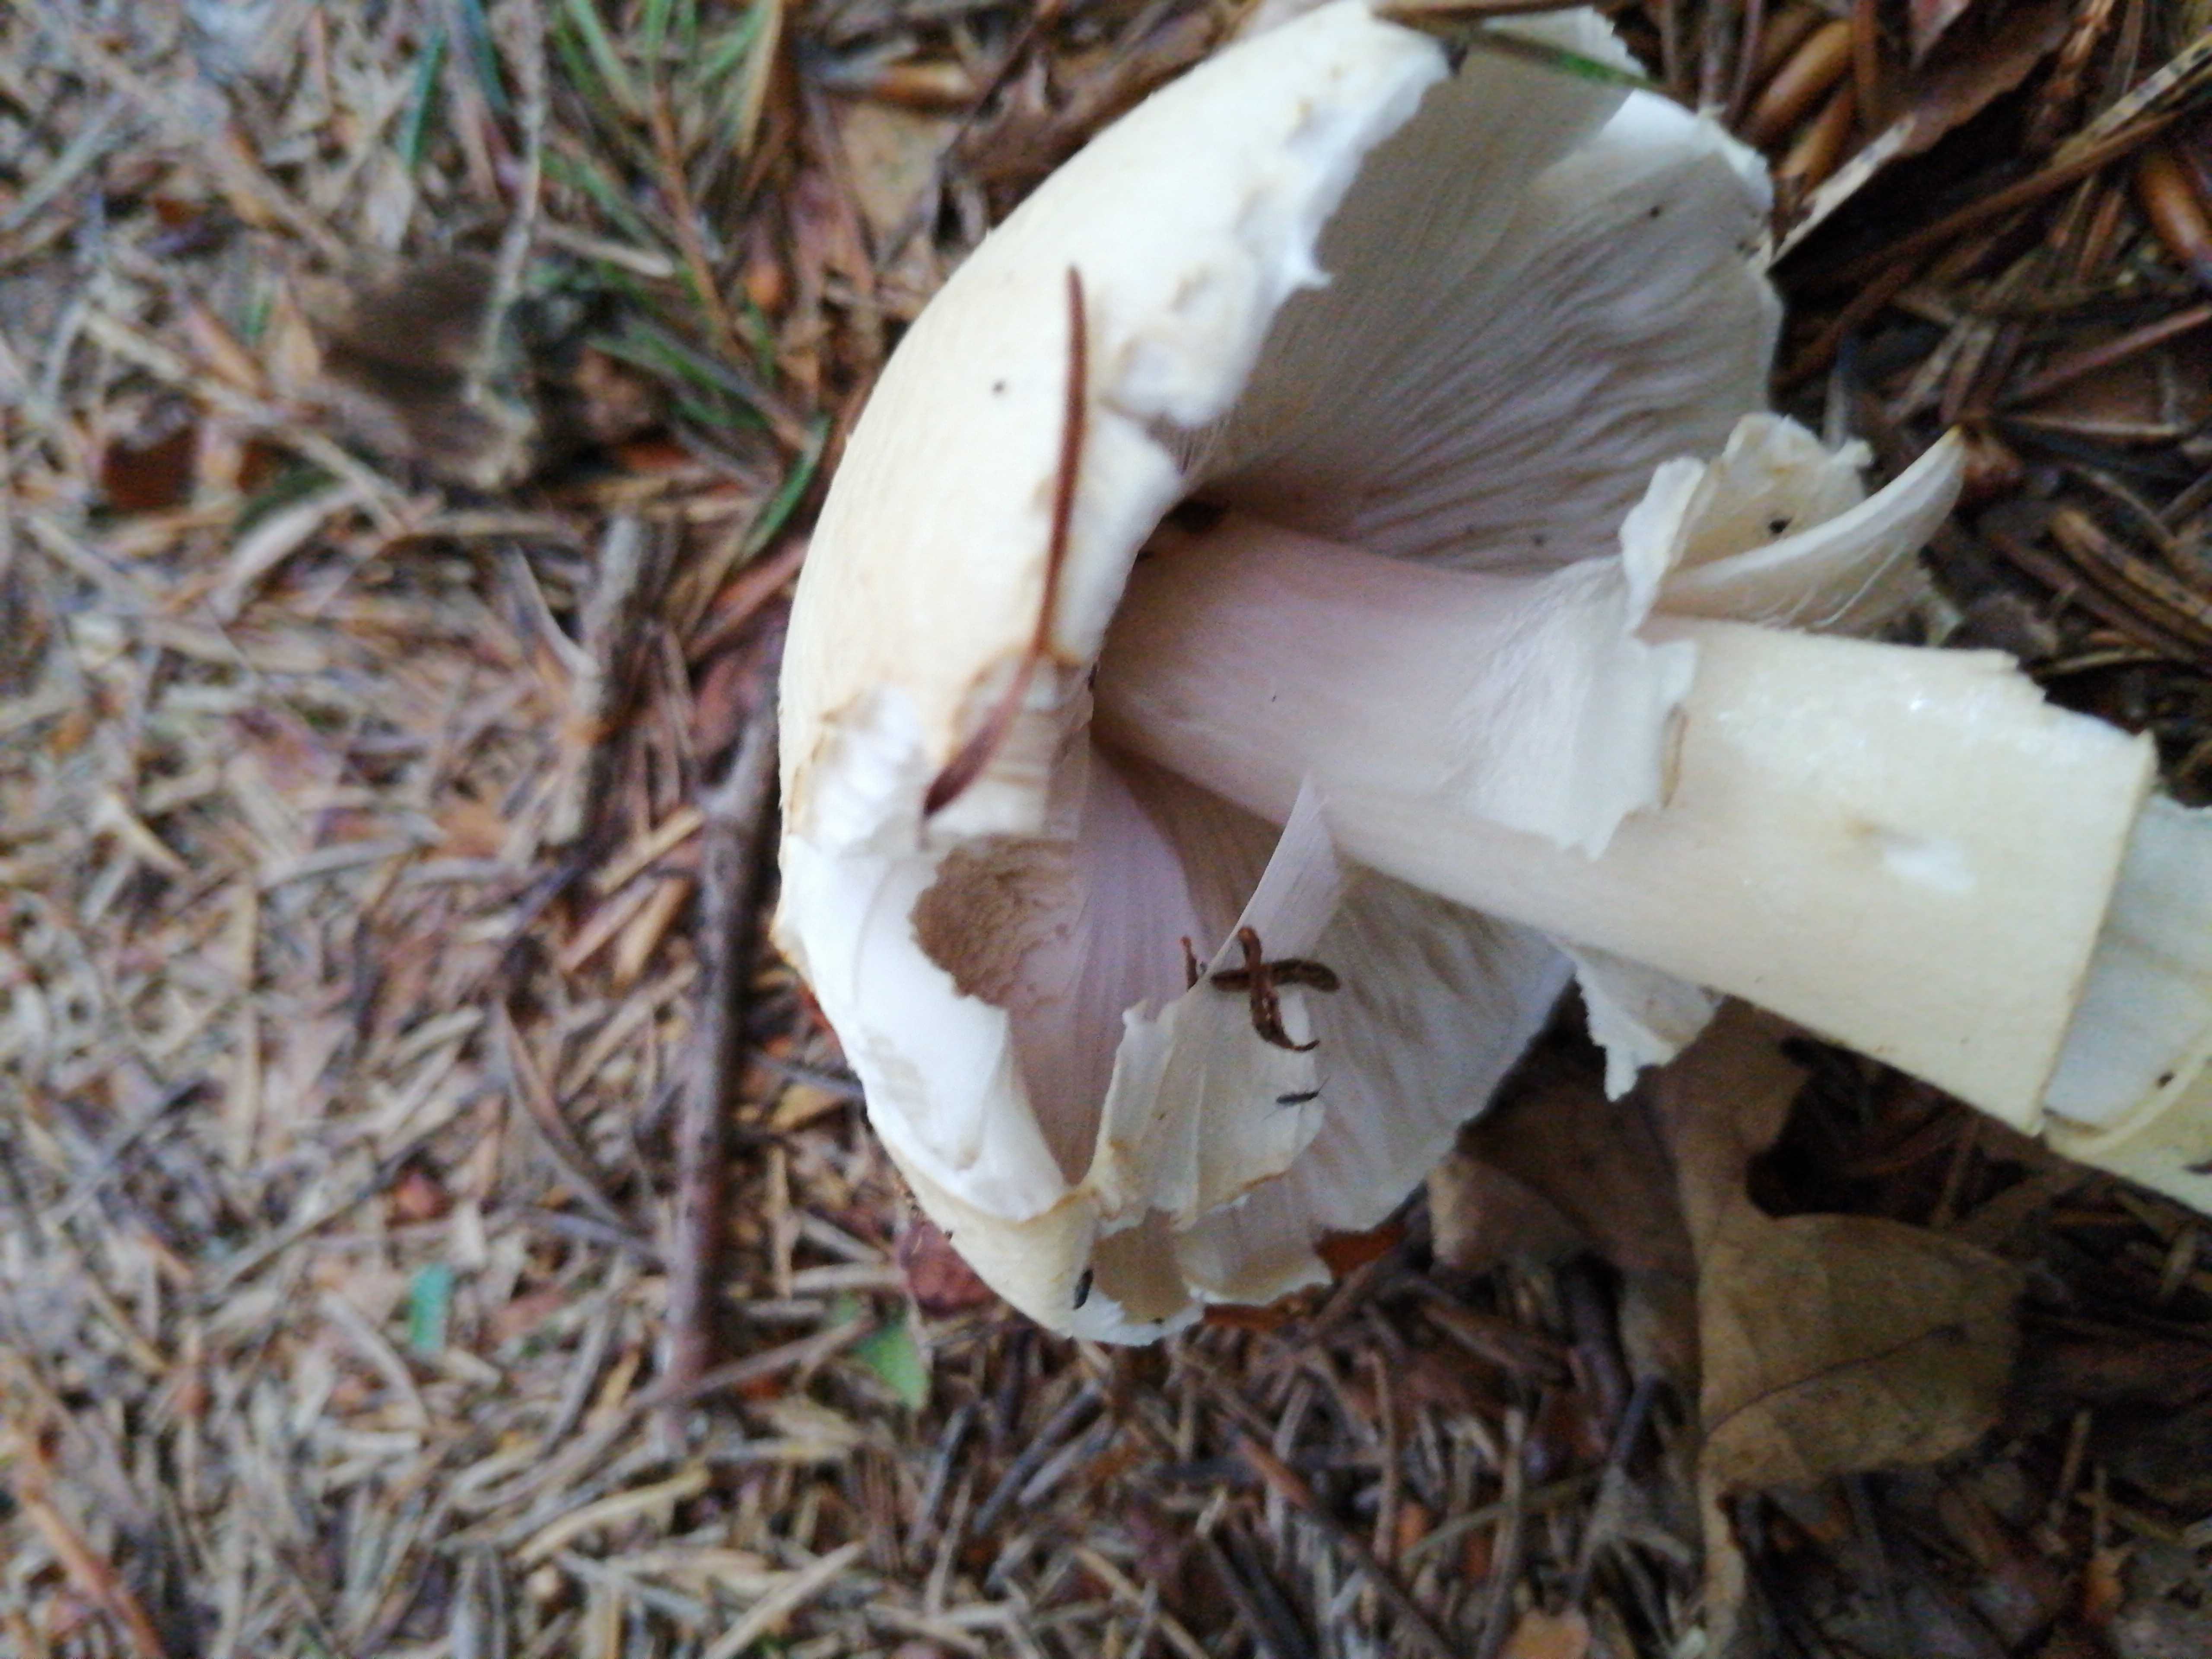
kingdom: Fungi
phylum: Basidiomycota
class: Agaricomycetes
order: Agaricales
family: Agaricaceae
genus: Agaricus
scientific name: Agaricus sylvicola
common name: gulhvid champignon
